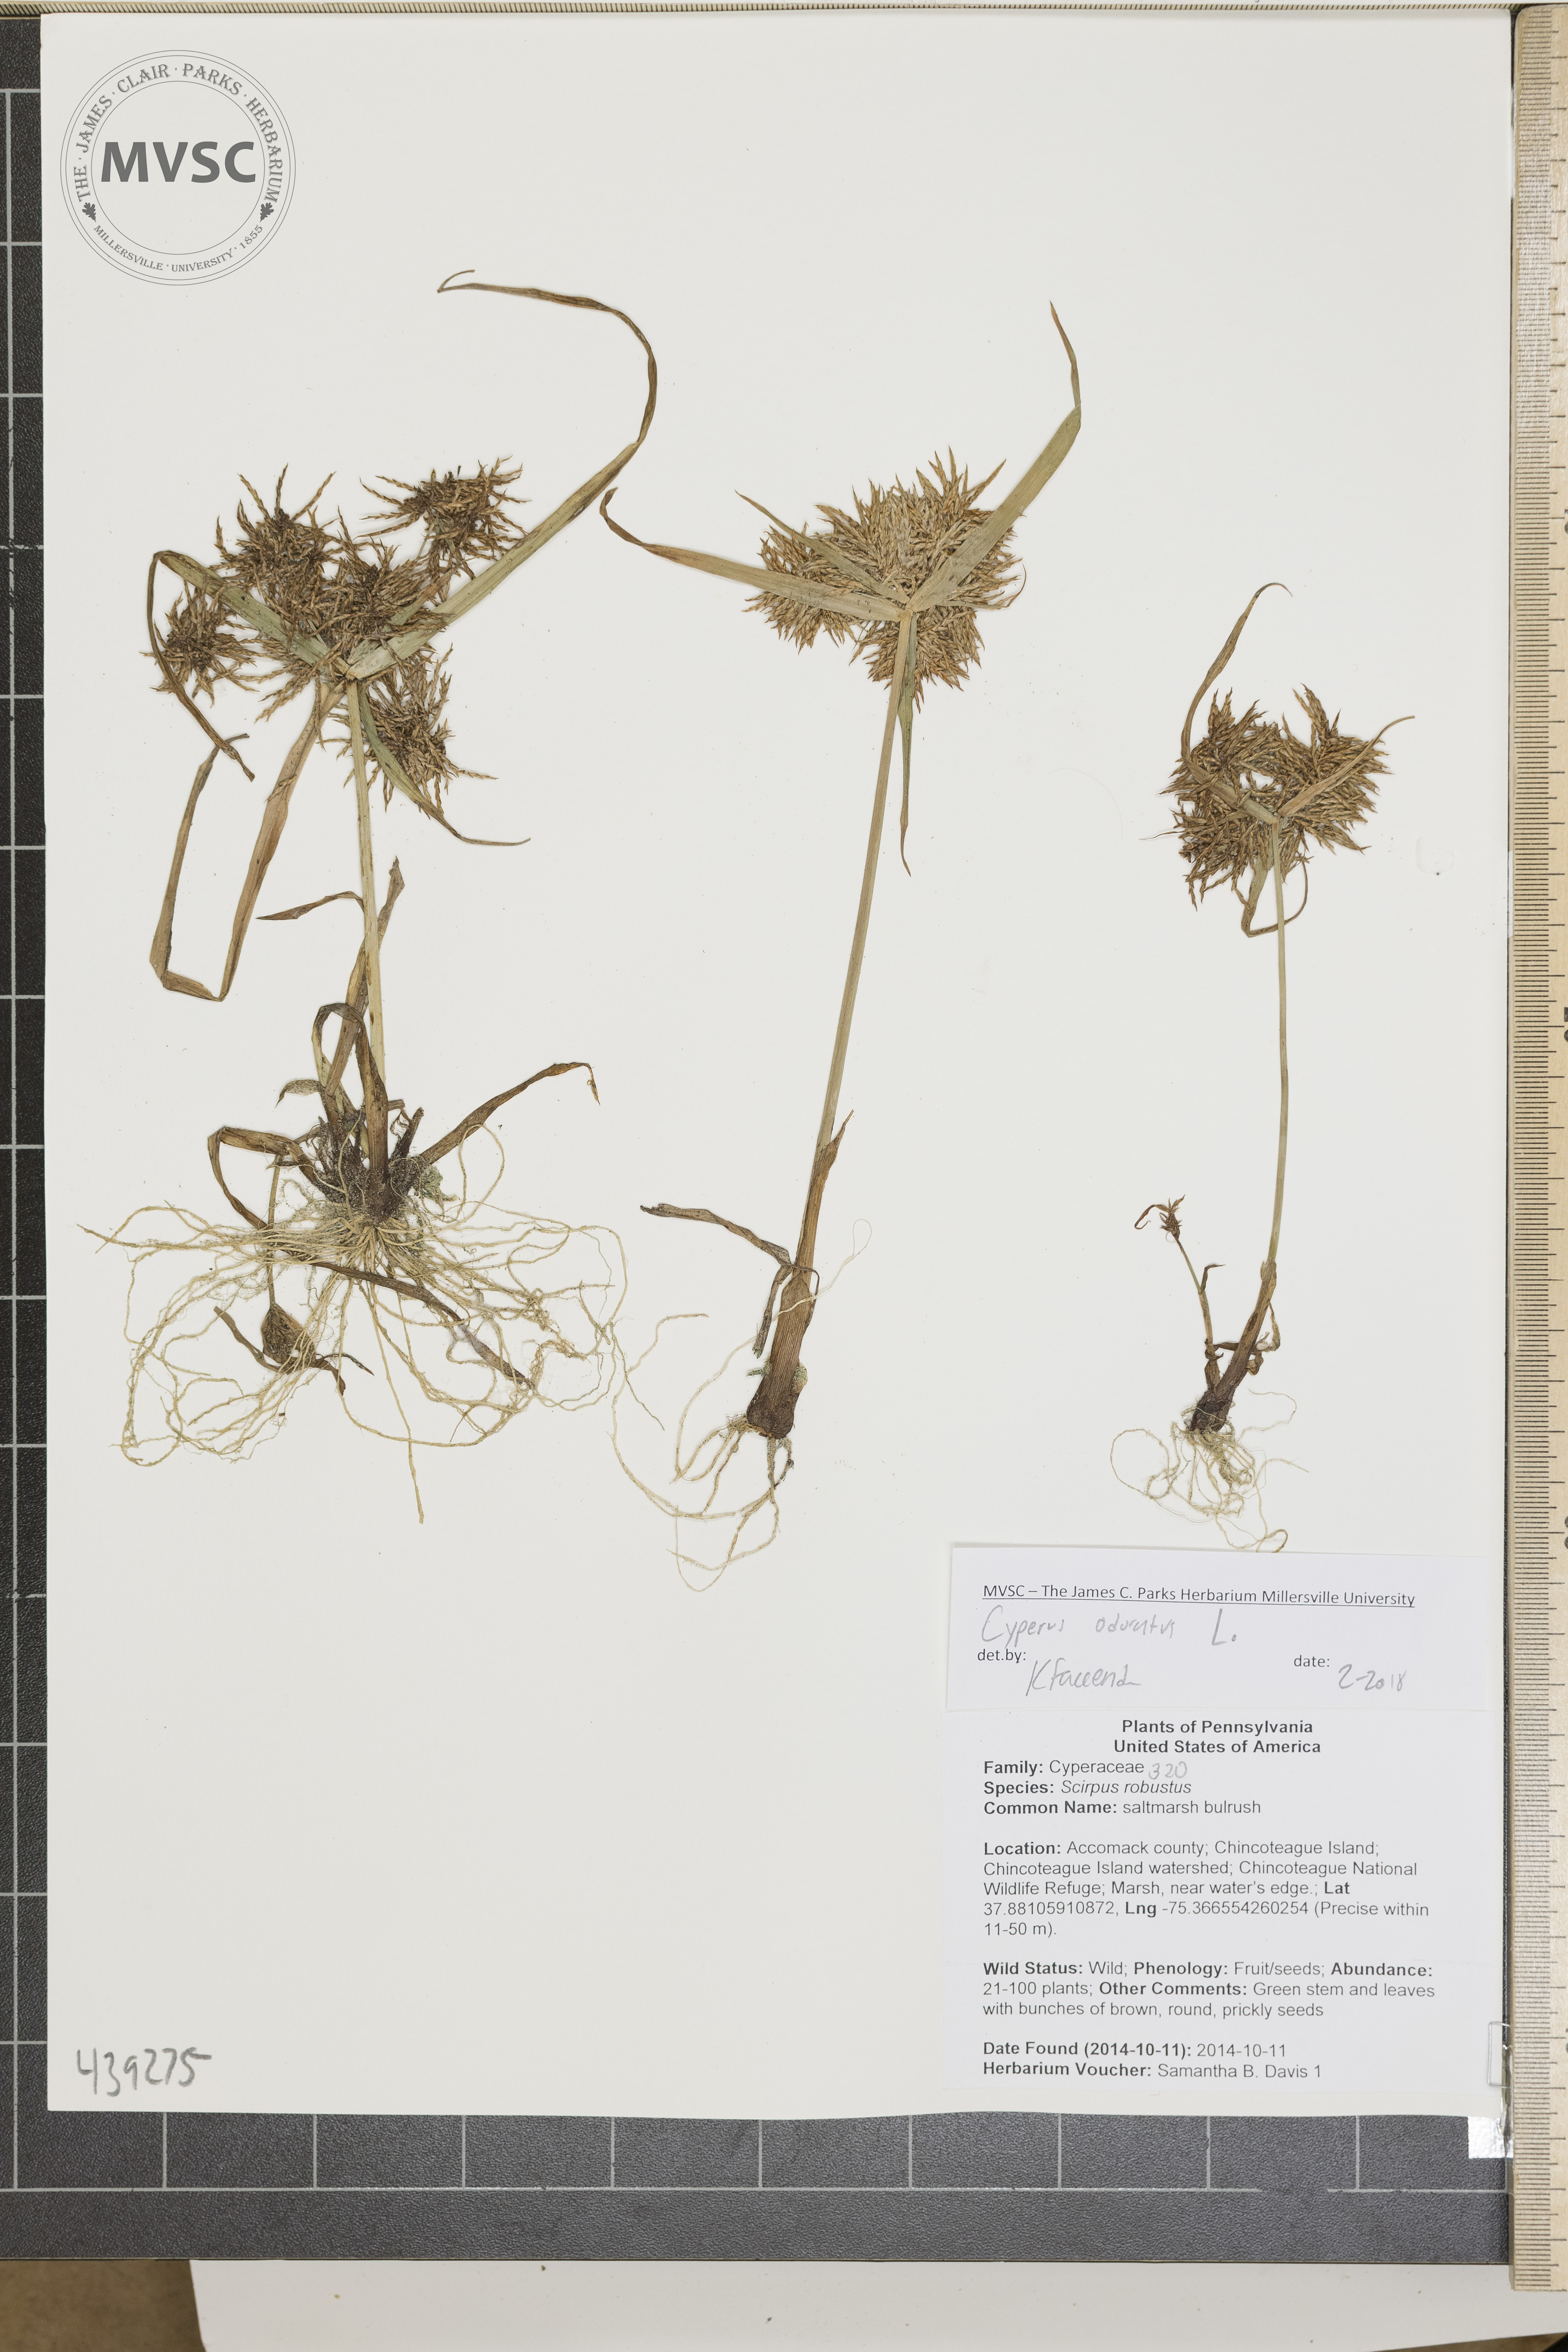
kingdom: Plantae
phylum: Tracheophyta
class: Liliopsida
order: Poales
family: Cyperaceae
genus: Cyperus
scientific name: Cyperus odoratus
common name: Fragrant flatsedge
